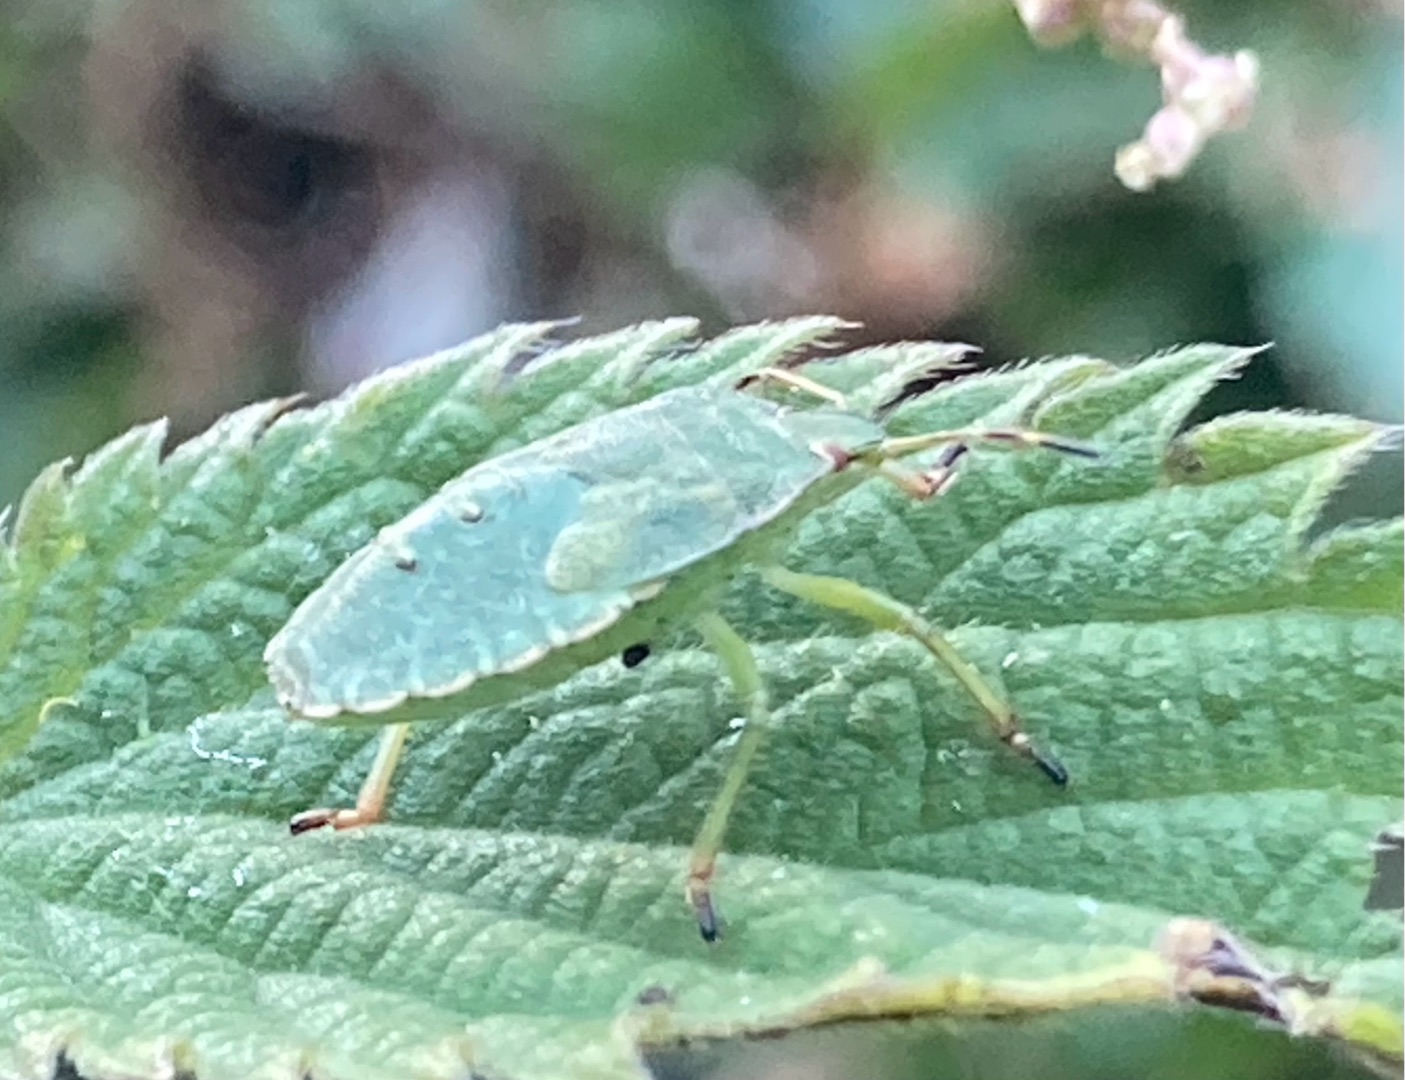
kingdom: Animalia
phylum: Arthropoda
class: Insecta
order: Hemiptera
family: Pentatomidae
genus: Palomena
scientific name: Palomena prasina
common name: Grøn bredtæge
